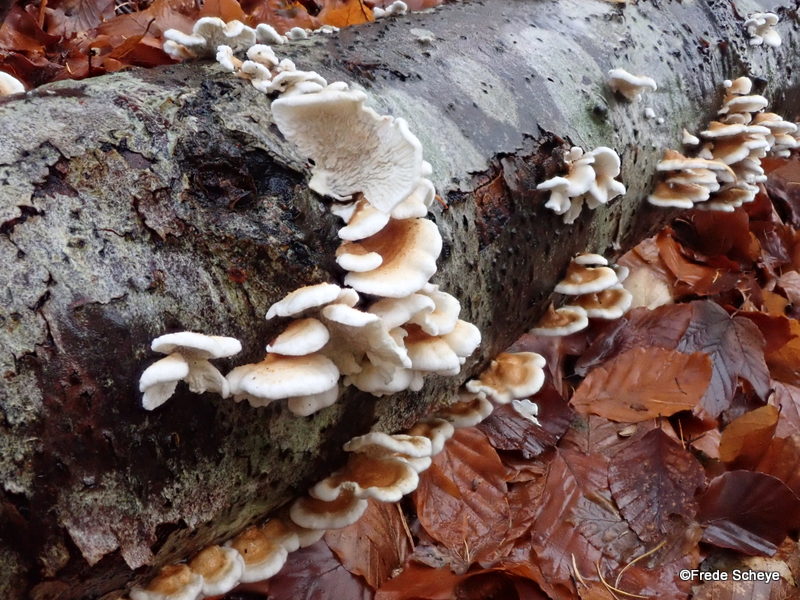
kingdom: Fungi
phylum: Basidiomycota
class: Agaricomycetes
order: Amylocorticiales
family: Amylocorticiaceae
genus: Plicaturopsis
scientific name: Plicaturopsis crispa
